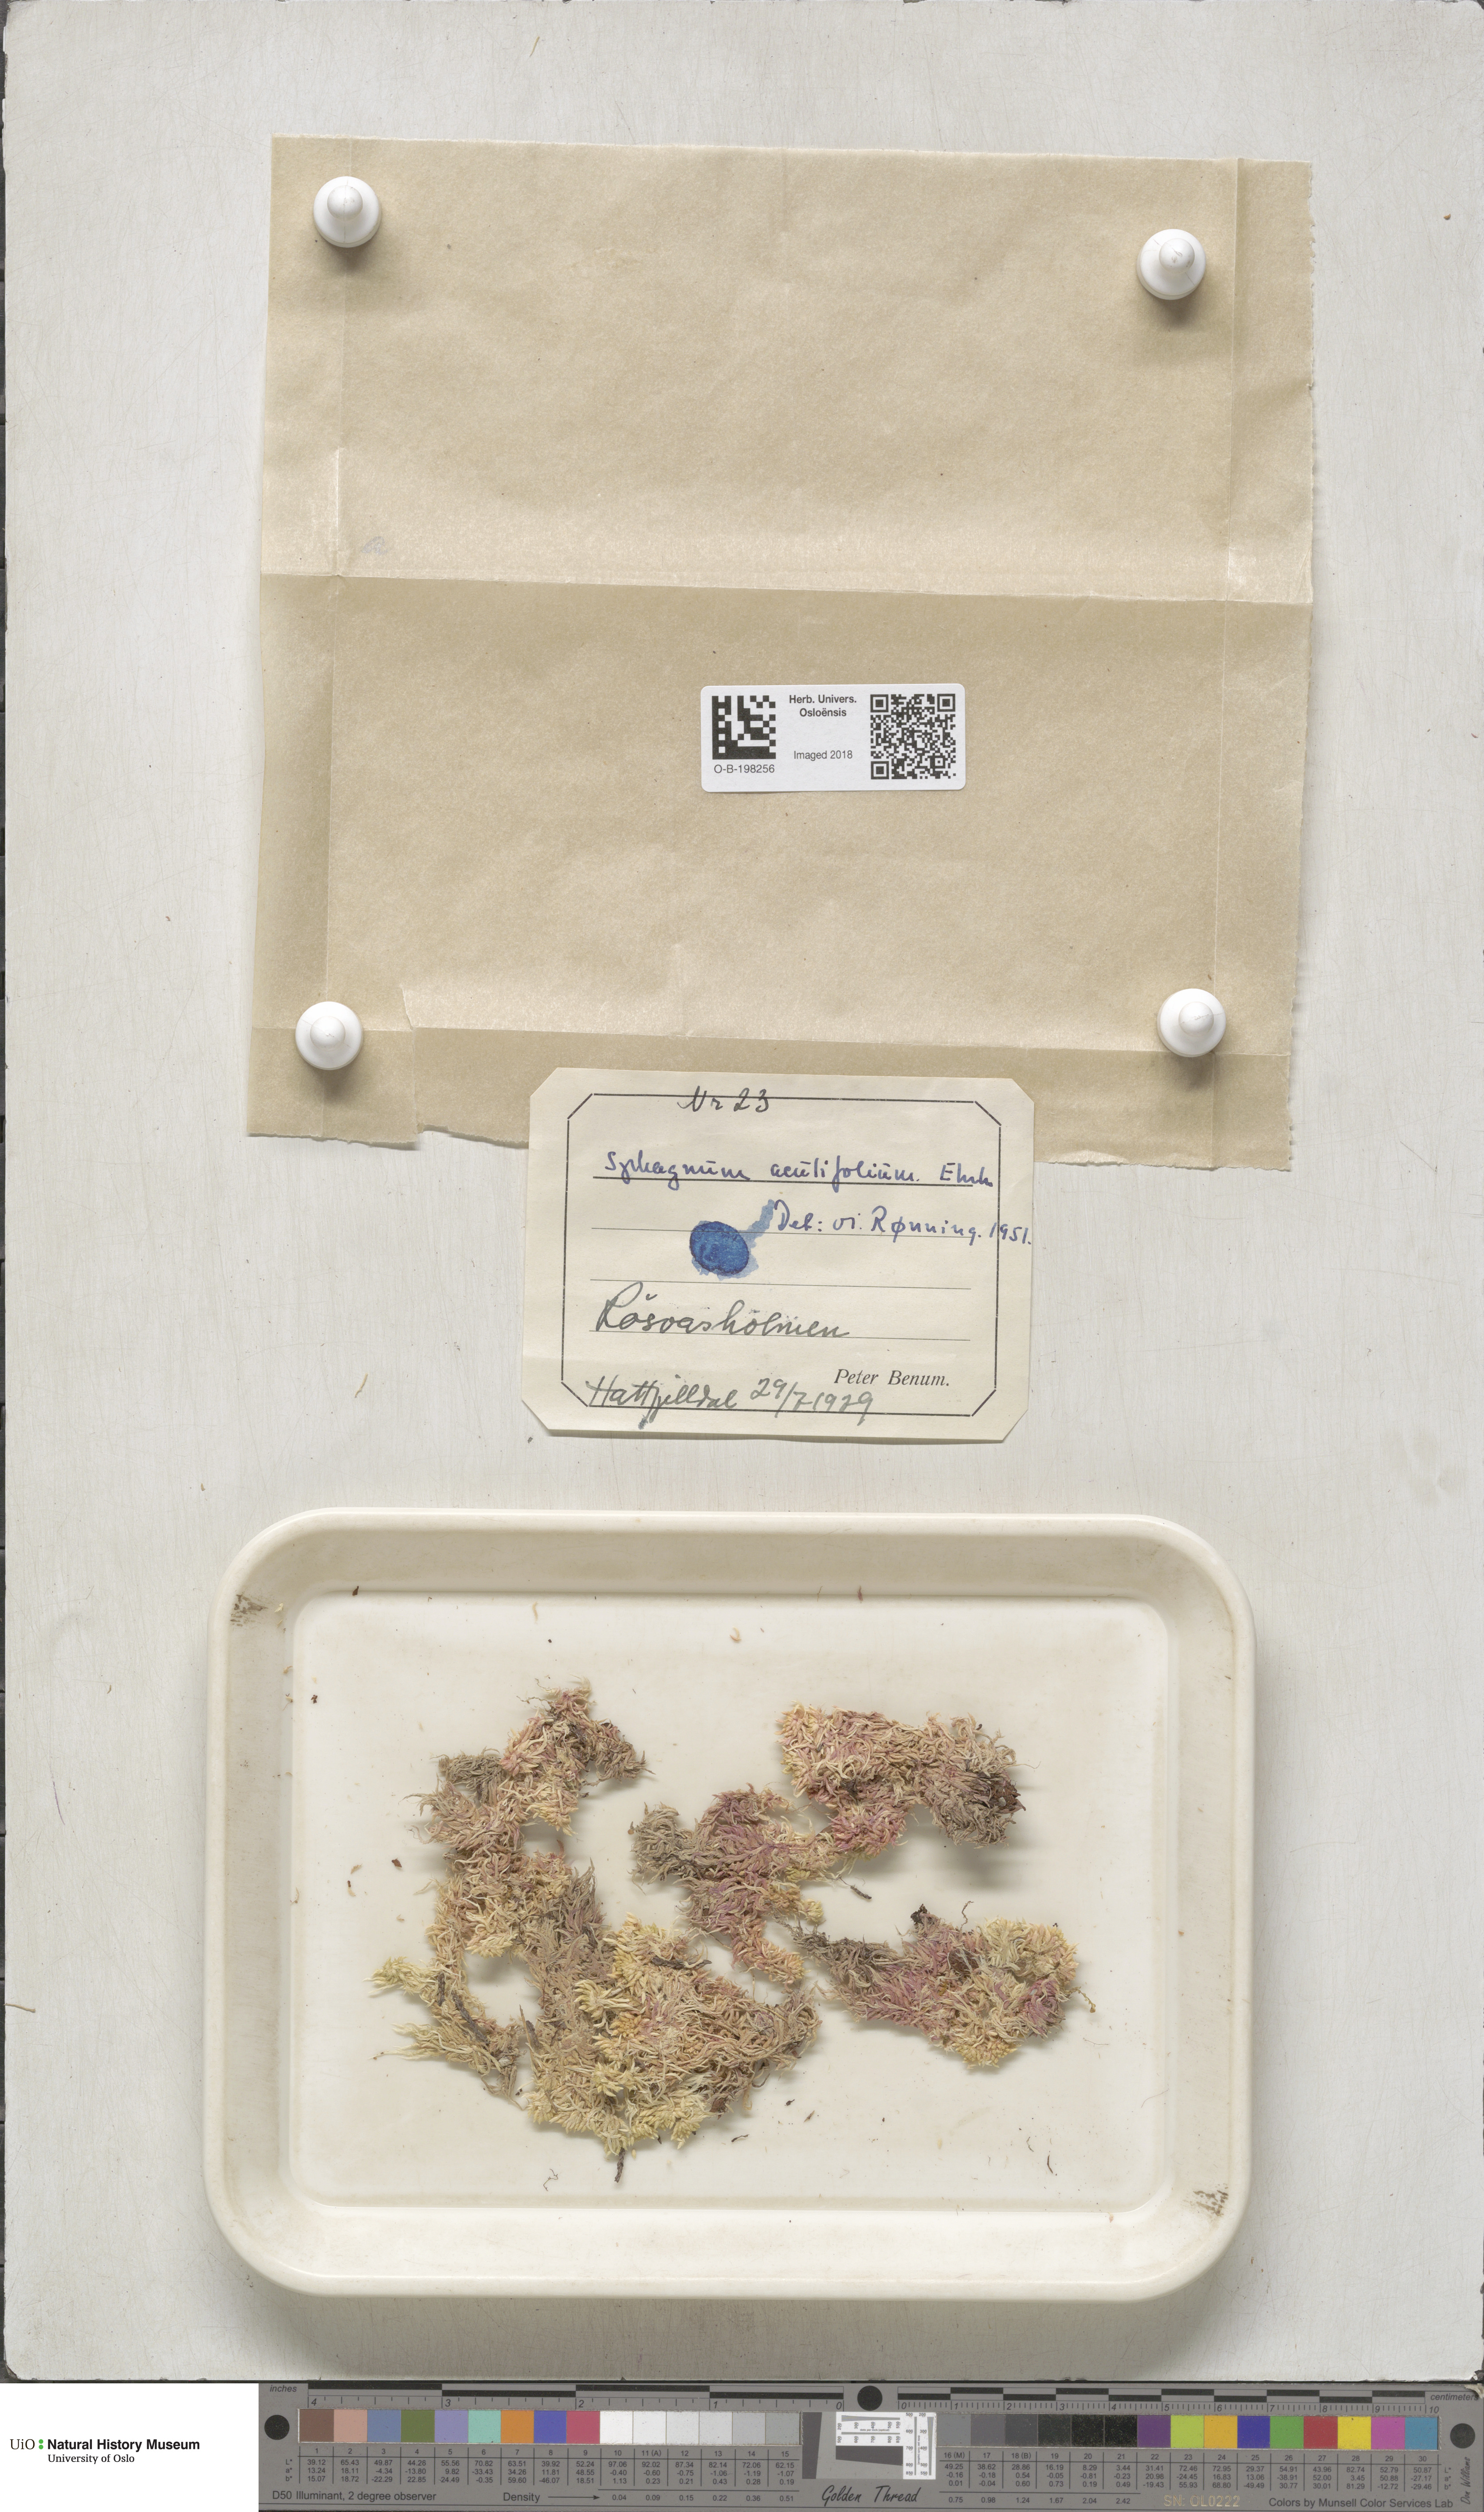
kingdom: Plantae
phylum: Bryophyta
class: Sphagnopsida
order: Sphagnales
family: Sphagnaceae
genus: Sphagnum
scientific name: Sphagnum capillifolium
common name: Small red peat moss
